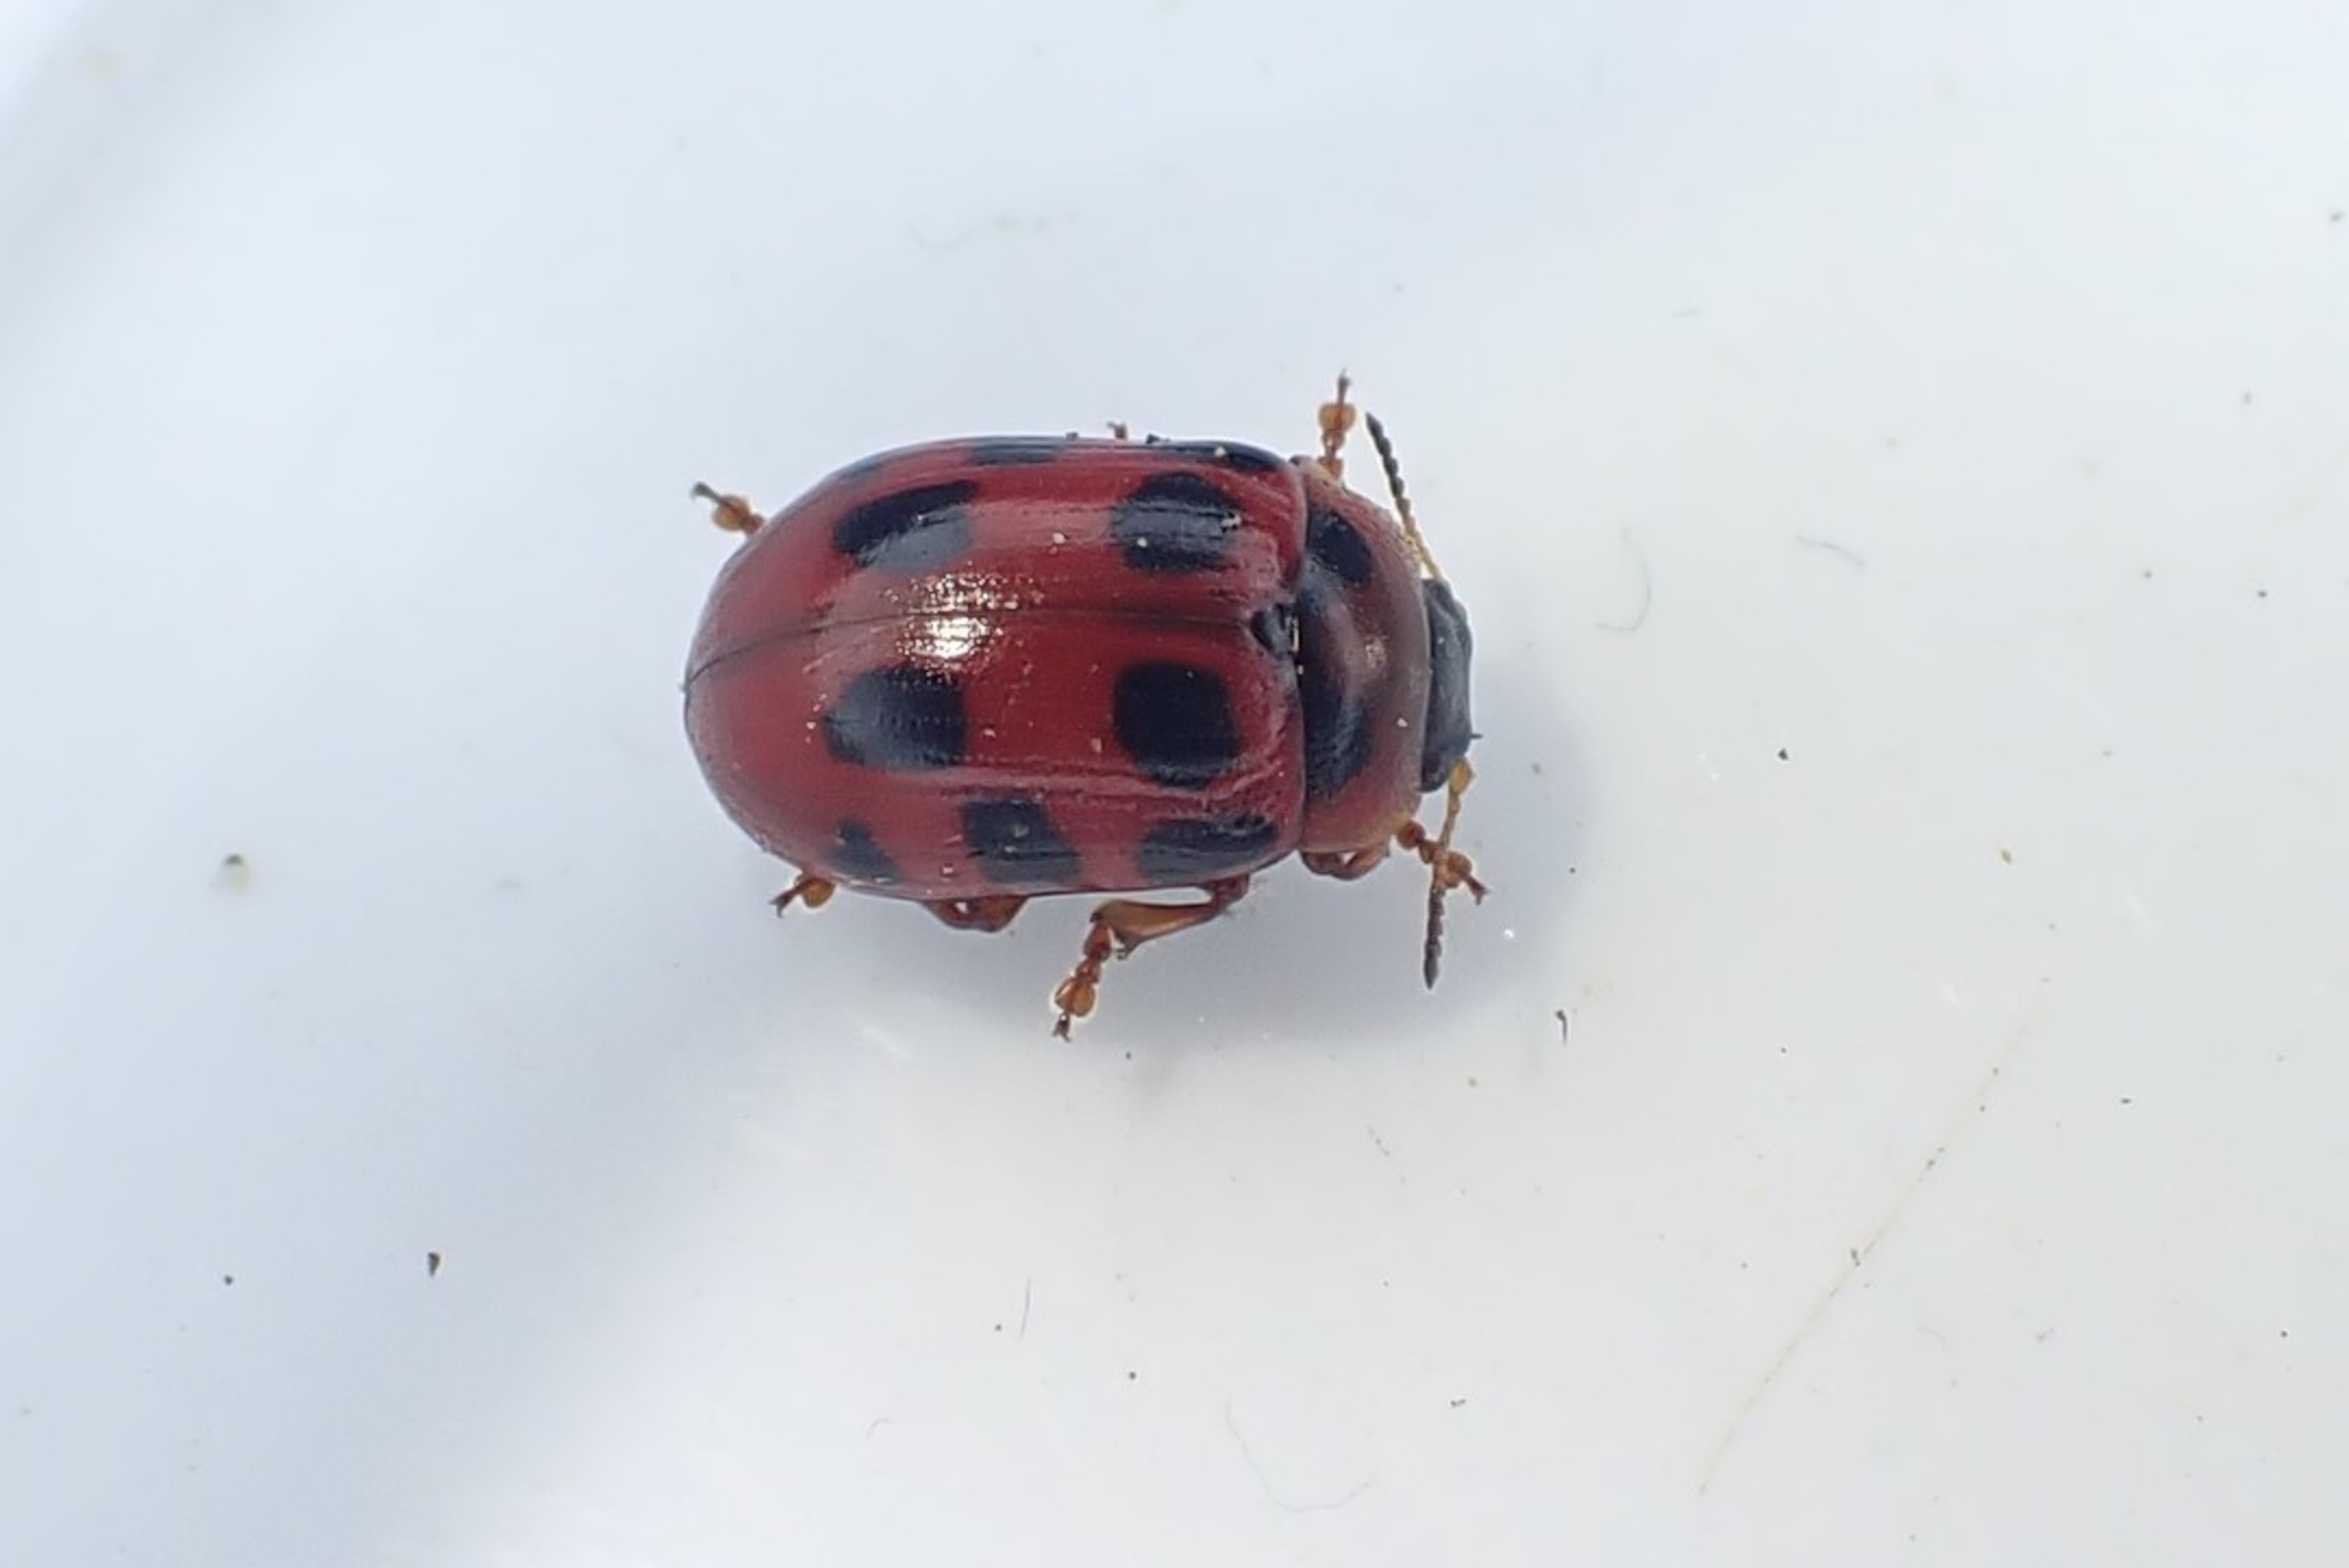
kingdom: Animalia
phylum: Arthropoda
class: Insecta
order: Coleoptera
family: Chrysomelidae
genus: Gonioctena
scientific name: Gonioctena decemnotata
